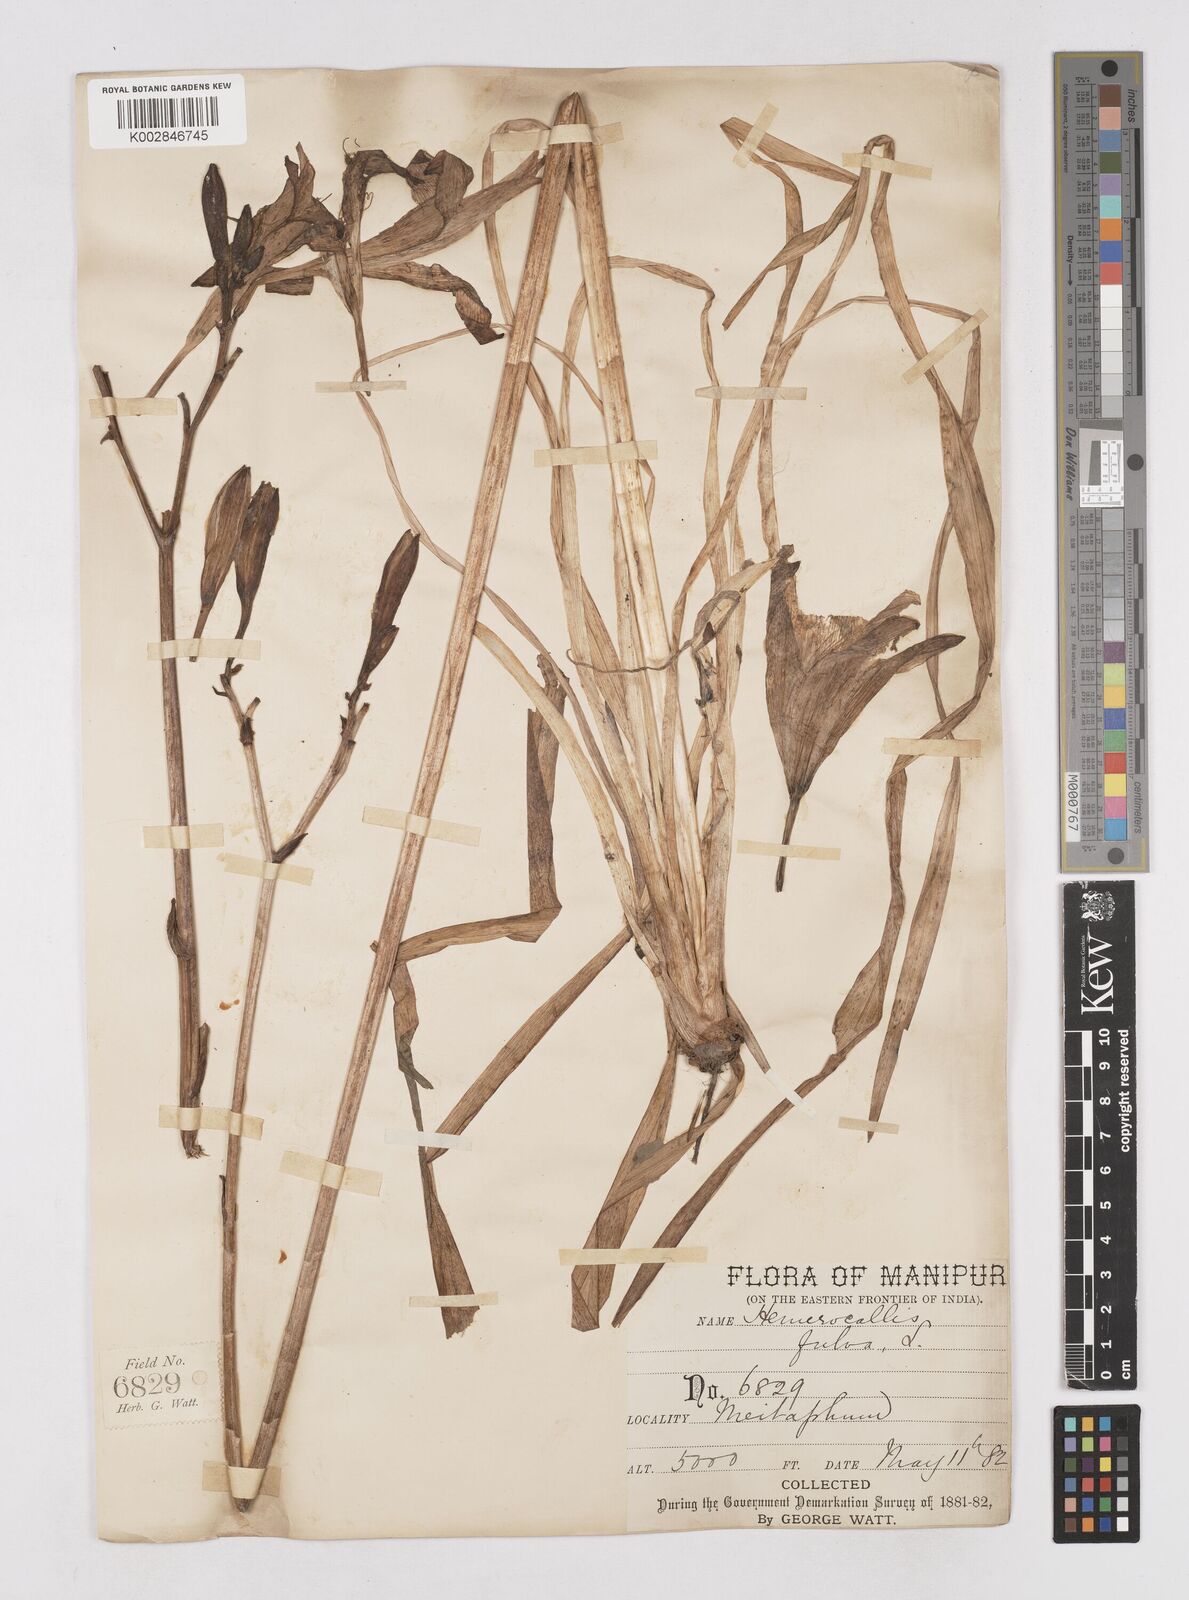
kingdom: Plantae
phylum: Tracheophyta
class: Liliopsida
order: Asparagales
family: Asphodelaceae
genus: Hemerocallis
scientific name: Hemerocallis fulva
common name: Orange day-lily
